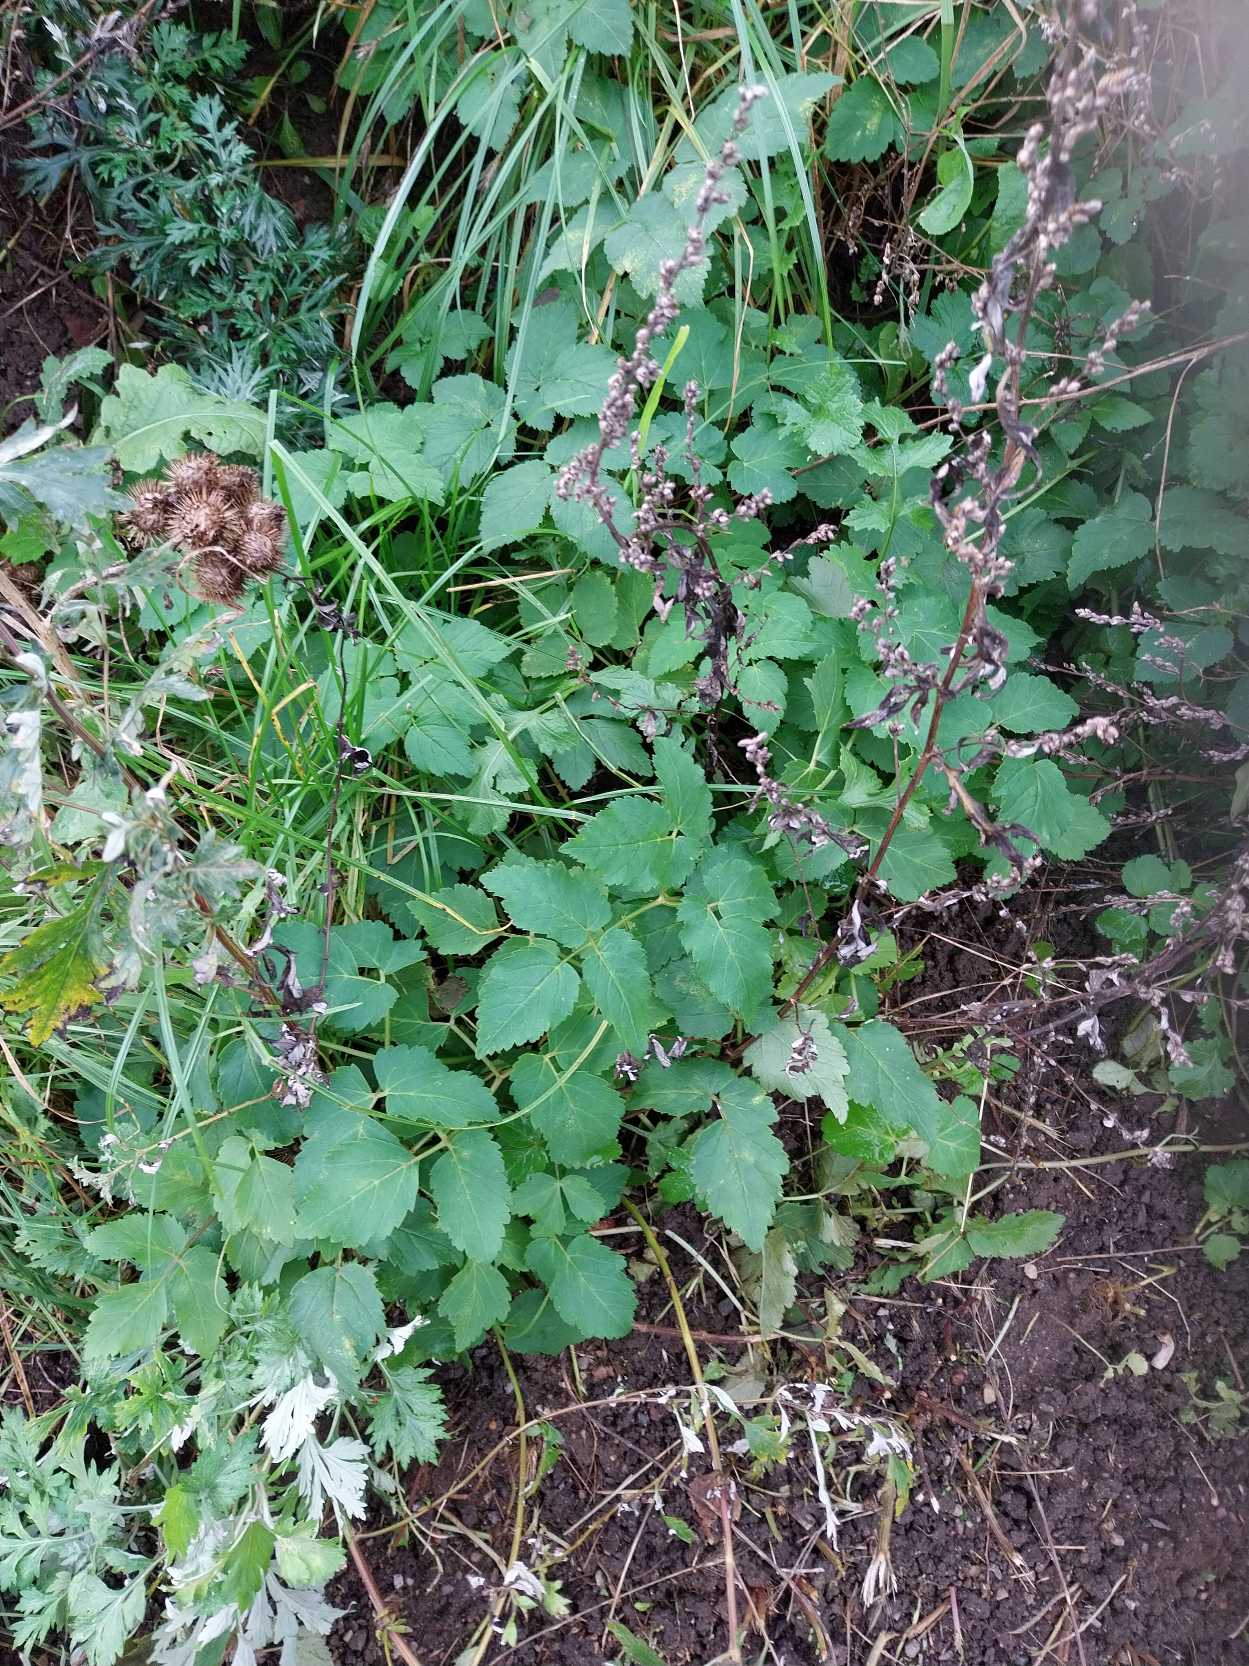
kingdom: Plantae
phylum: Tracheophyta
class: Magnoliopsida
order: Apiales
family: Apiaceae
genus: Aegopodium
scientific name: Aegopodium podagraria
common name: Skvalderkål
